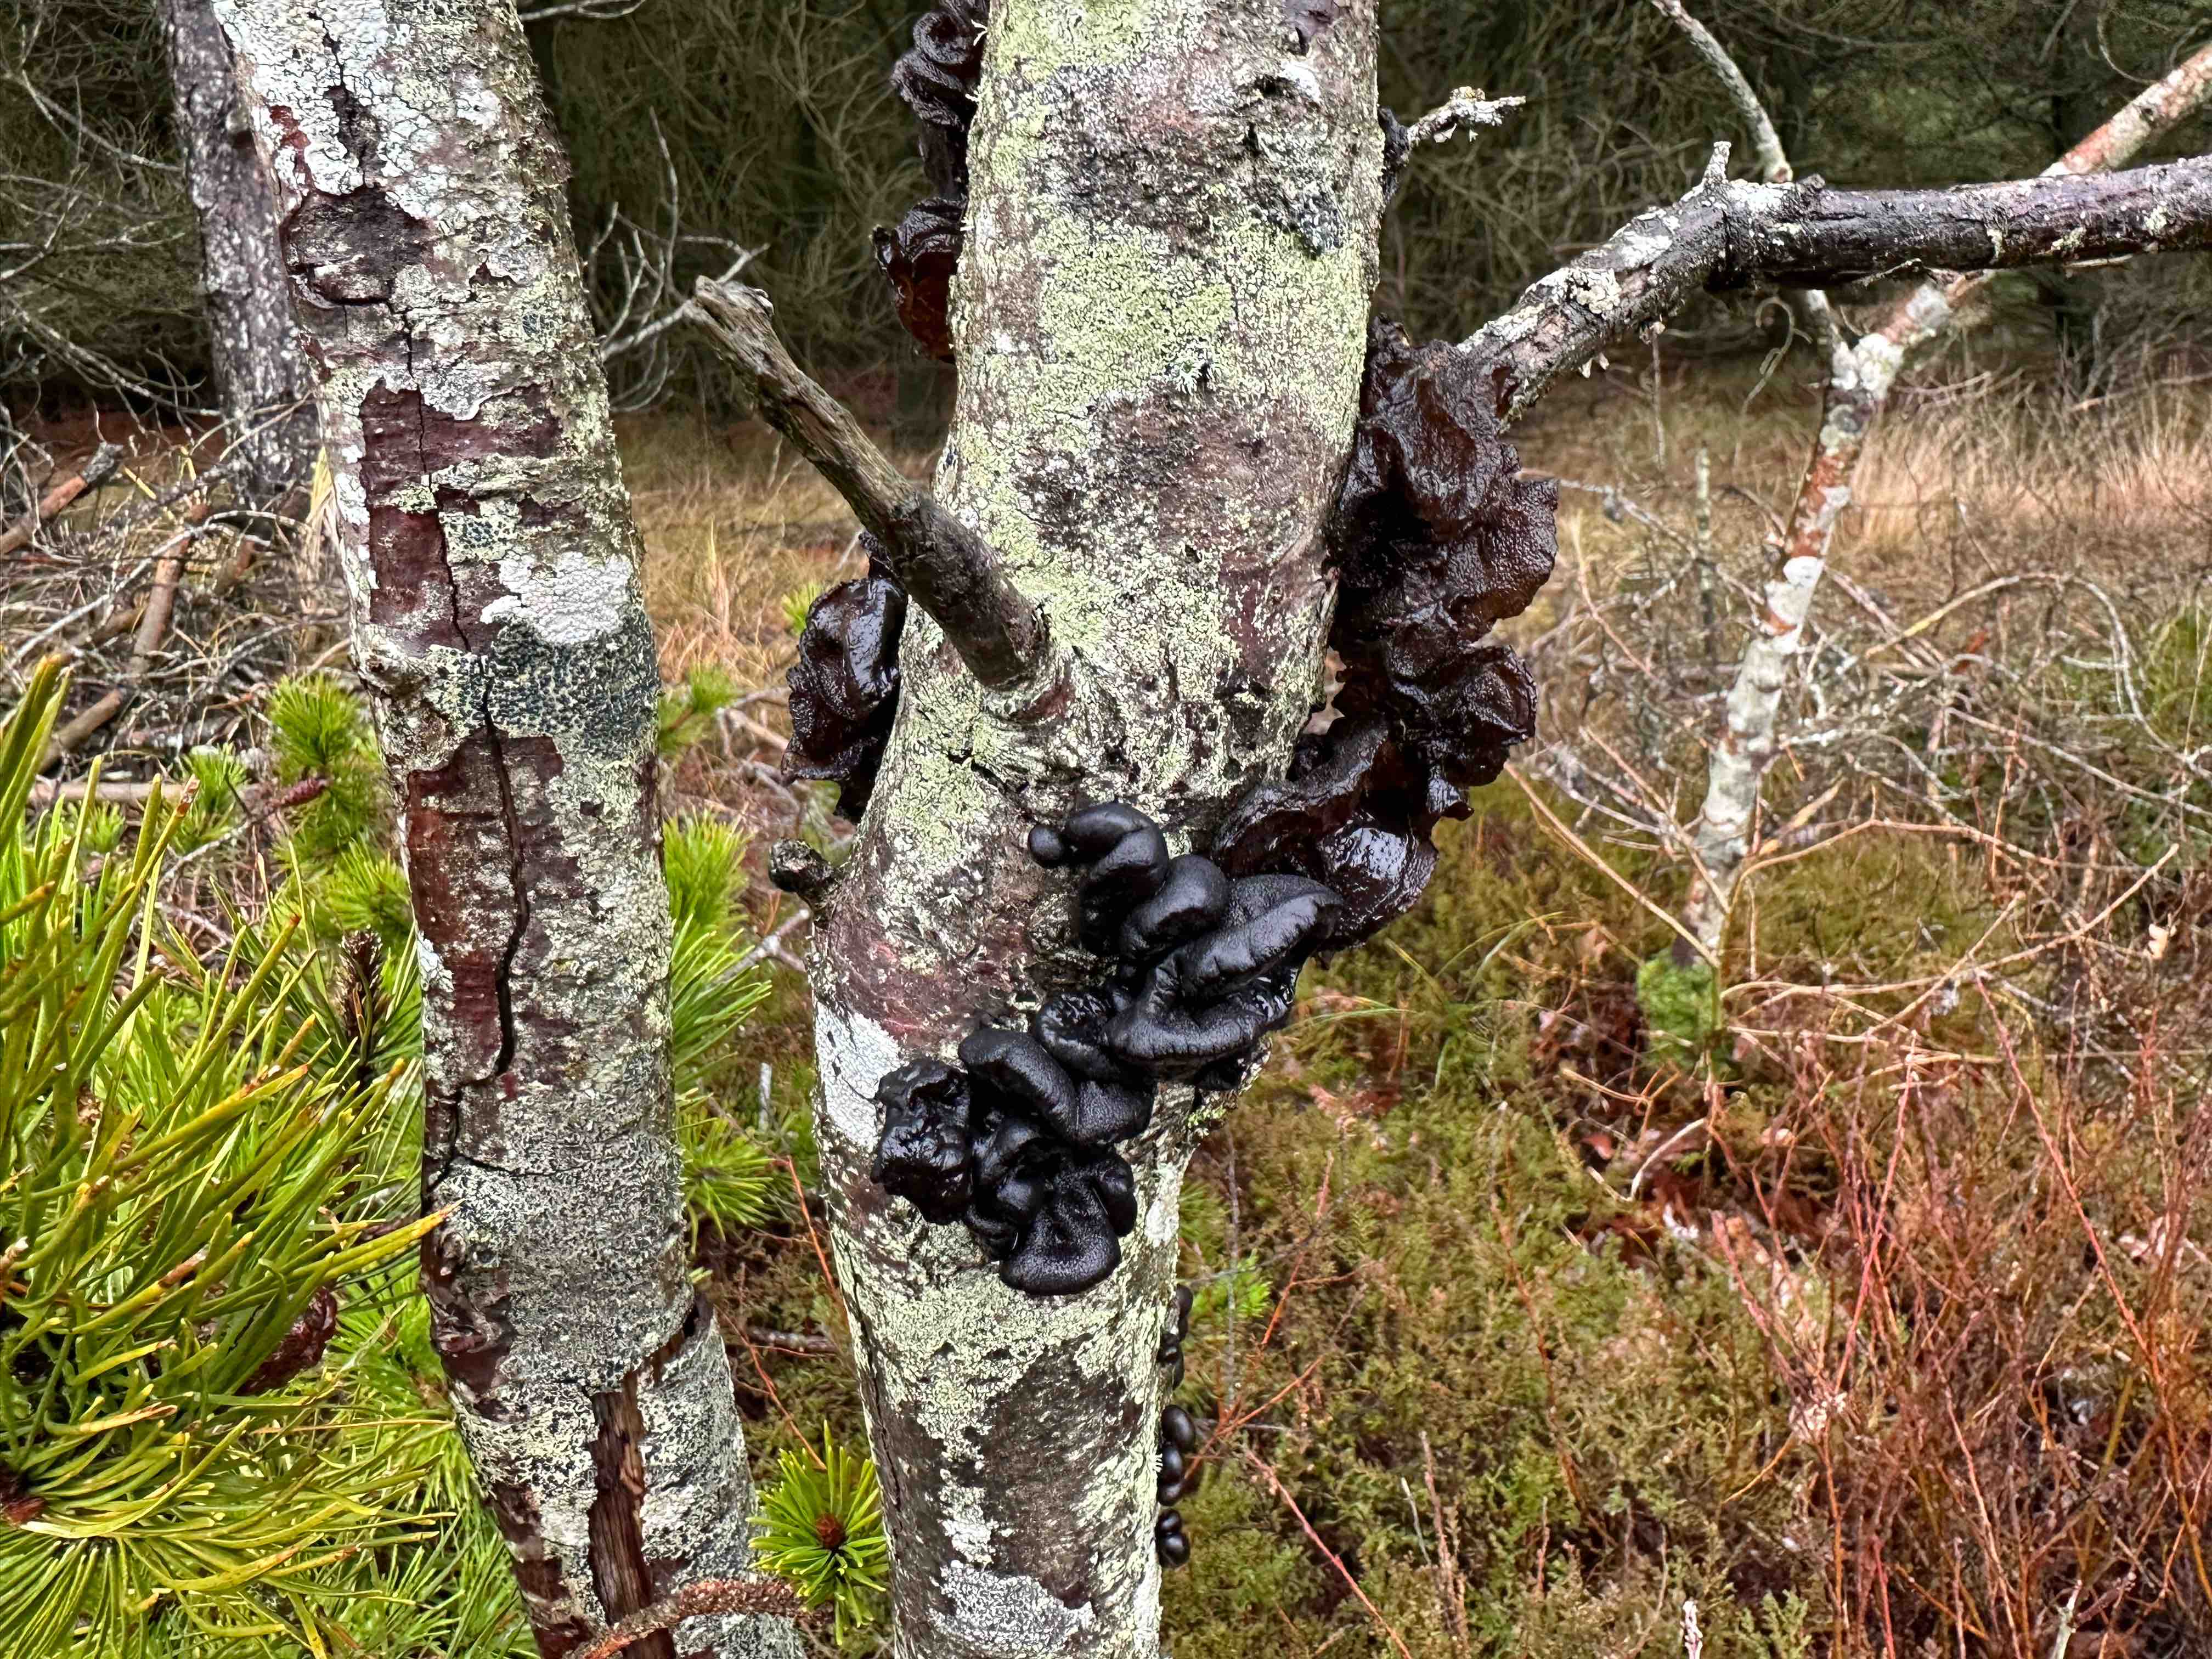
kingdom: Fungi
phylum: Basidiomycota
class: Agaricomycetes
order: Auriculariales
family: Auriculariaceae
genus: Exidia
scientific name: Exidia nigricans
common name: almindelig bævretop
